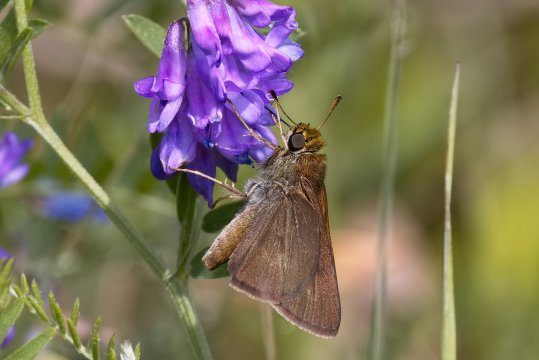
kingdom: Animalia
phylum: Arthropoda
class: Insecta
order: Lepidoptera
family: Hesperiidae
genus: Euphyes
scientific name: Euphyes vestris
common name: Dun Skipper
